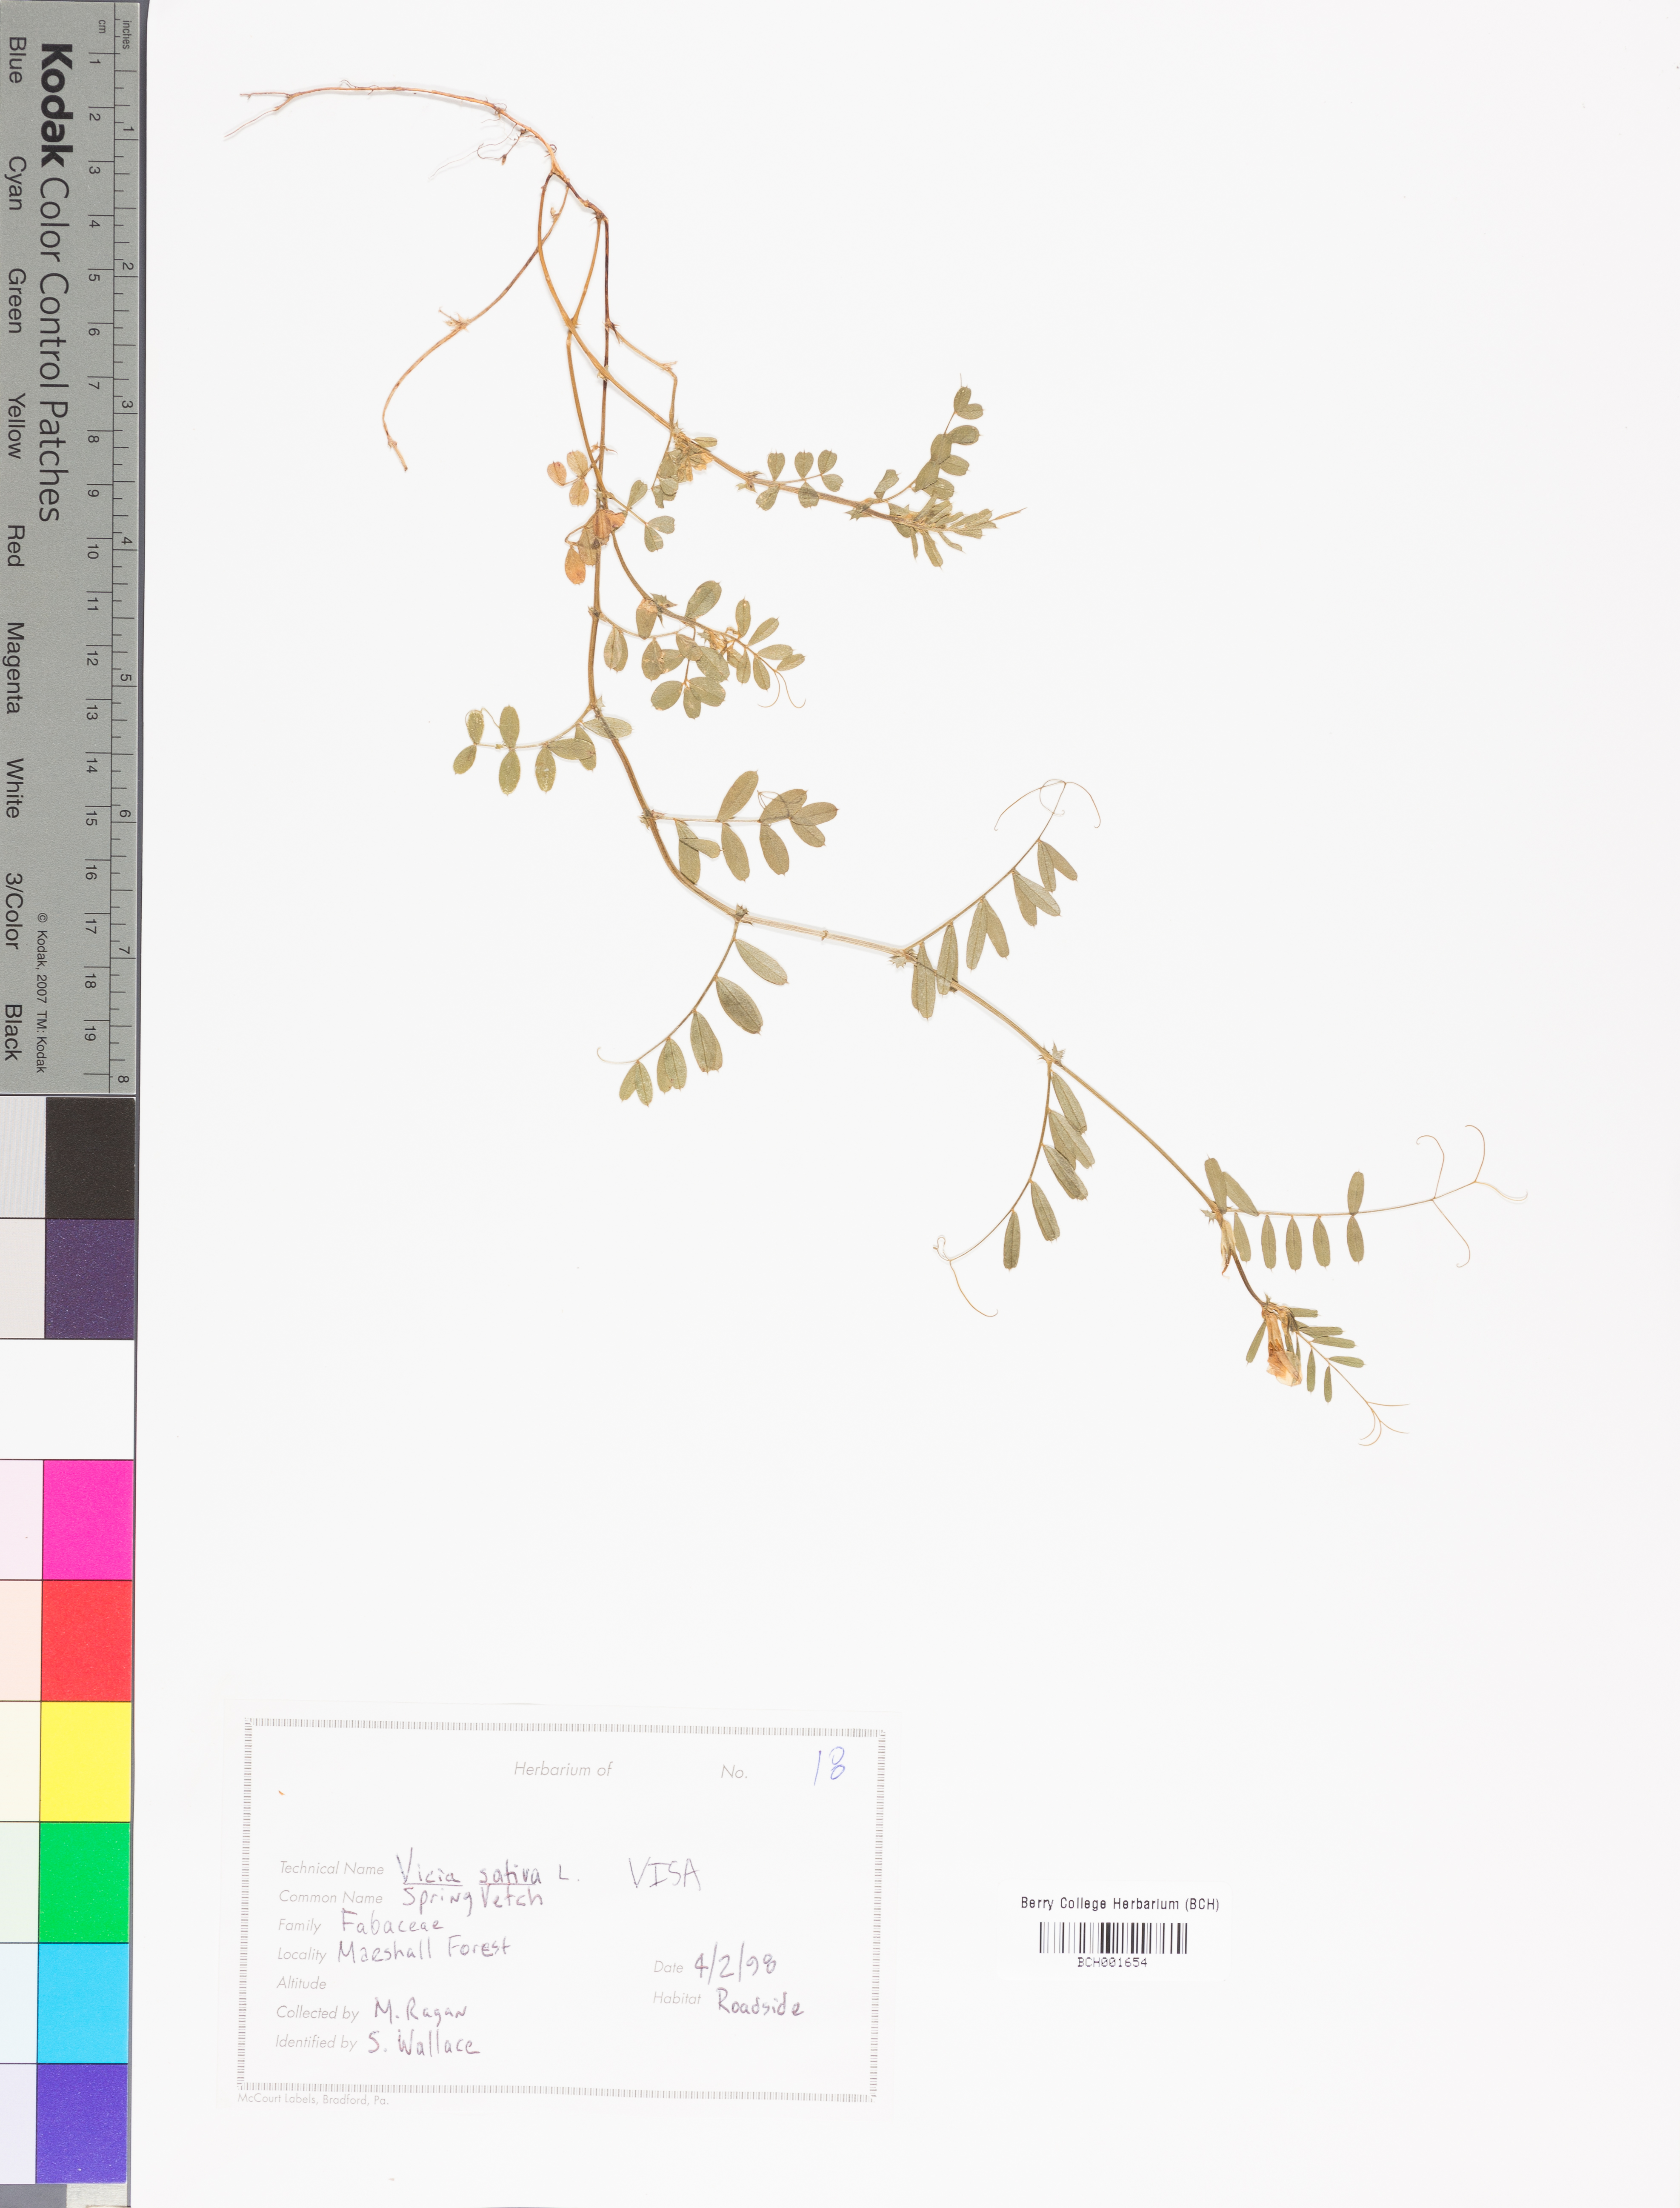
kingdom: Plantae
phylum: Tracheophyta
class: Magnoliopsida
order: Fabales
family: Fabaceae
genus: Vicia
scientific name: Vicia sativa
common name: Garden vetch
